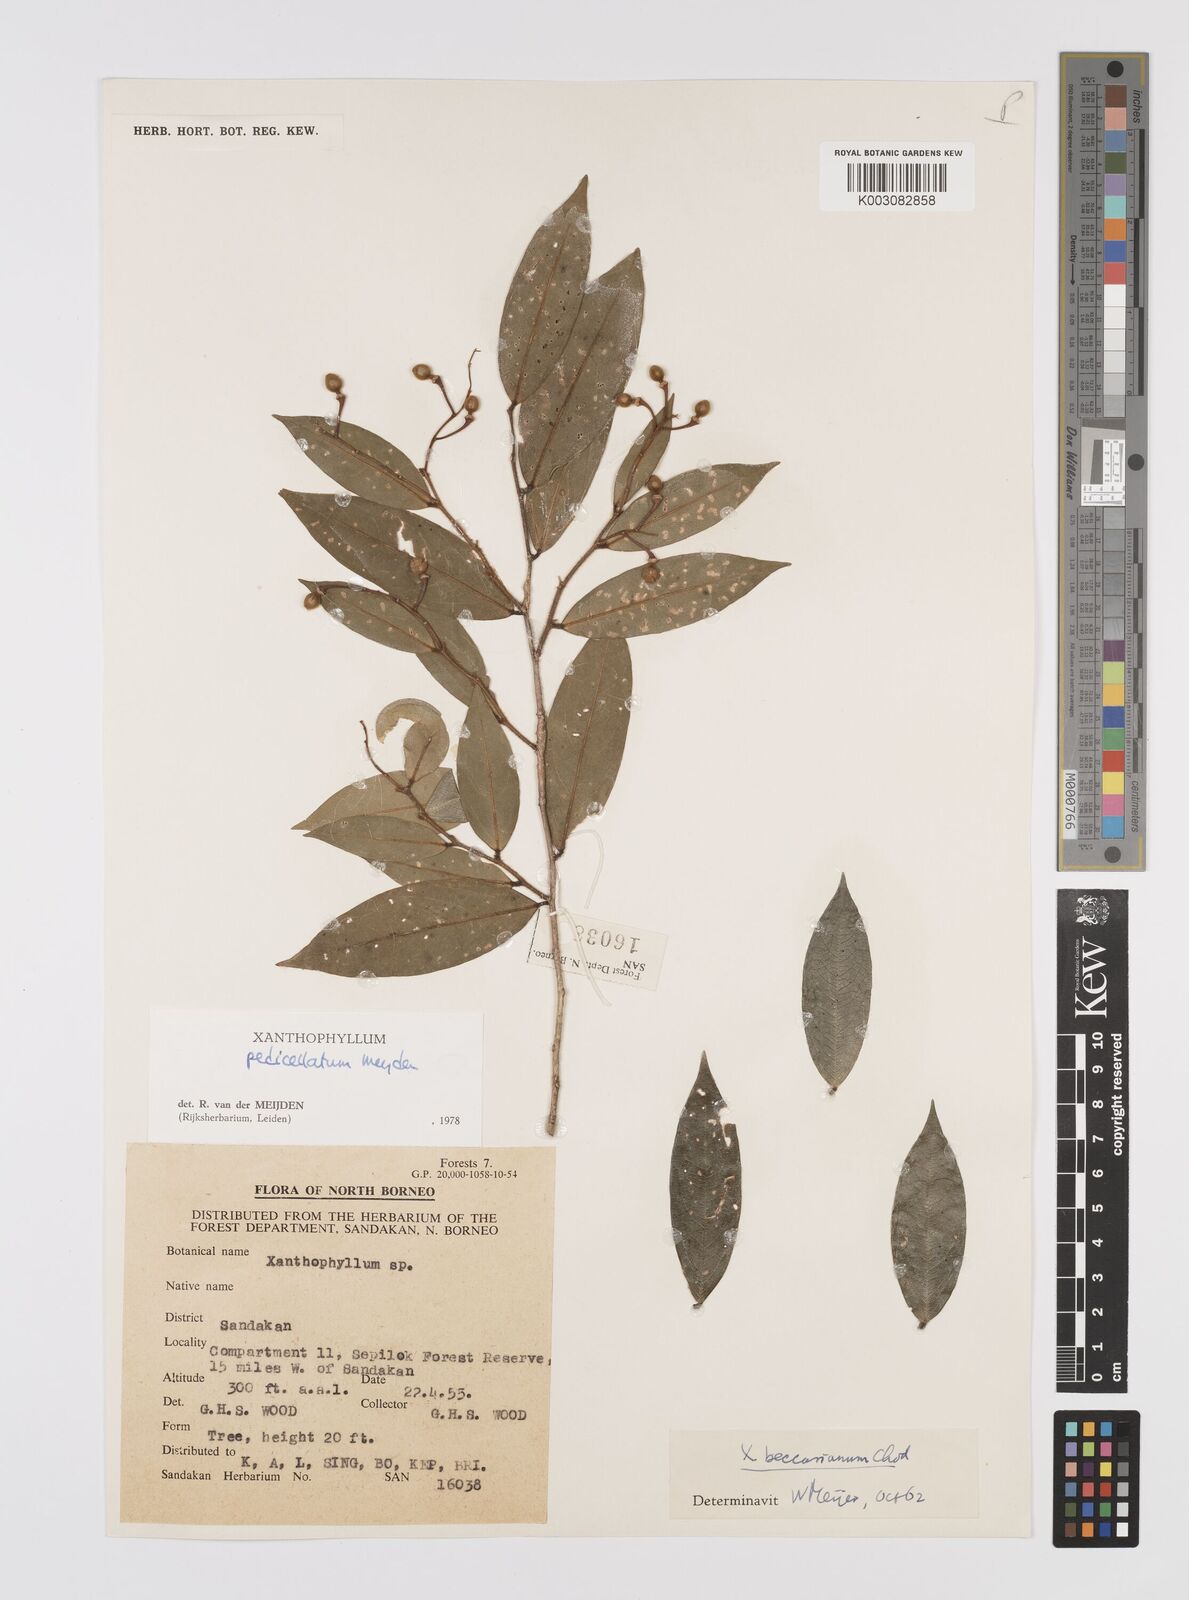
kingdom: Plantae
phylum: Tracheophyta
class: Magnoliopsida
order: Fabales
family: Polygalaceae
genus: Xanthophyllum
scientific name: Xanthophyllum pedicellatum
